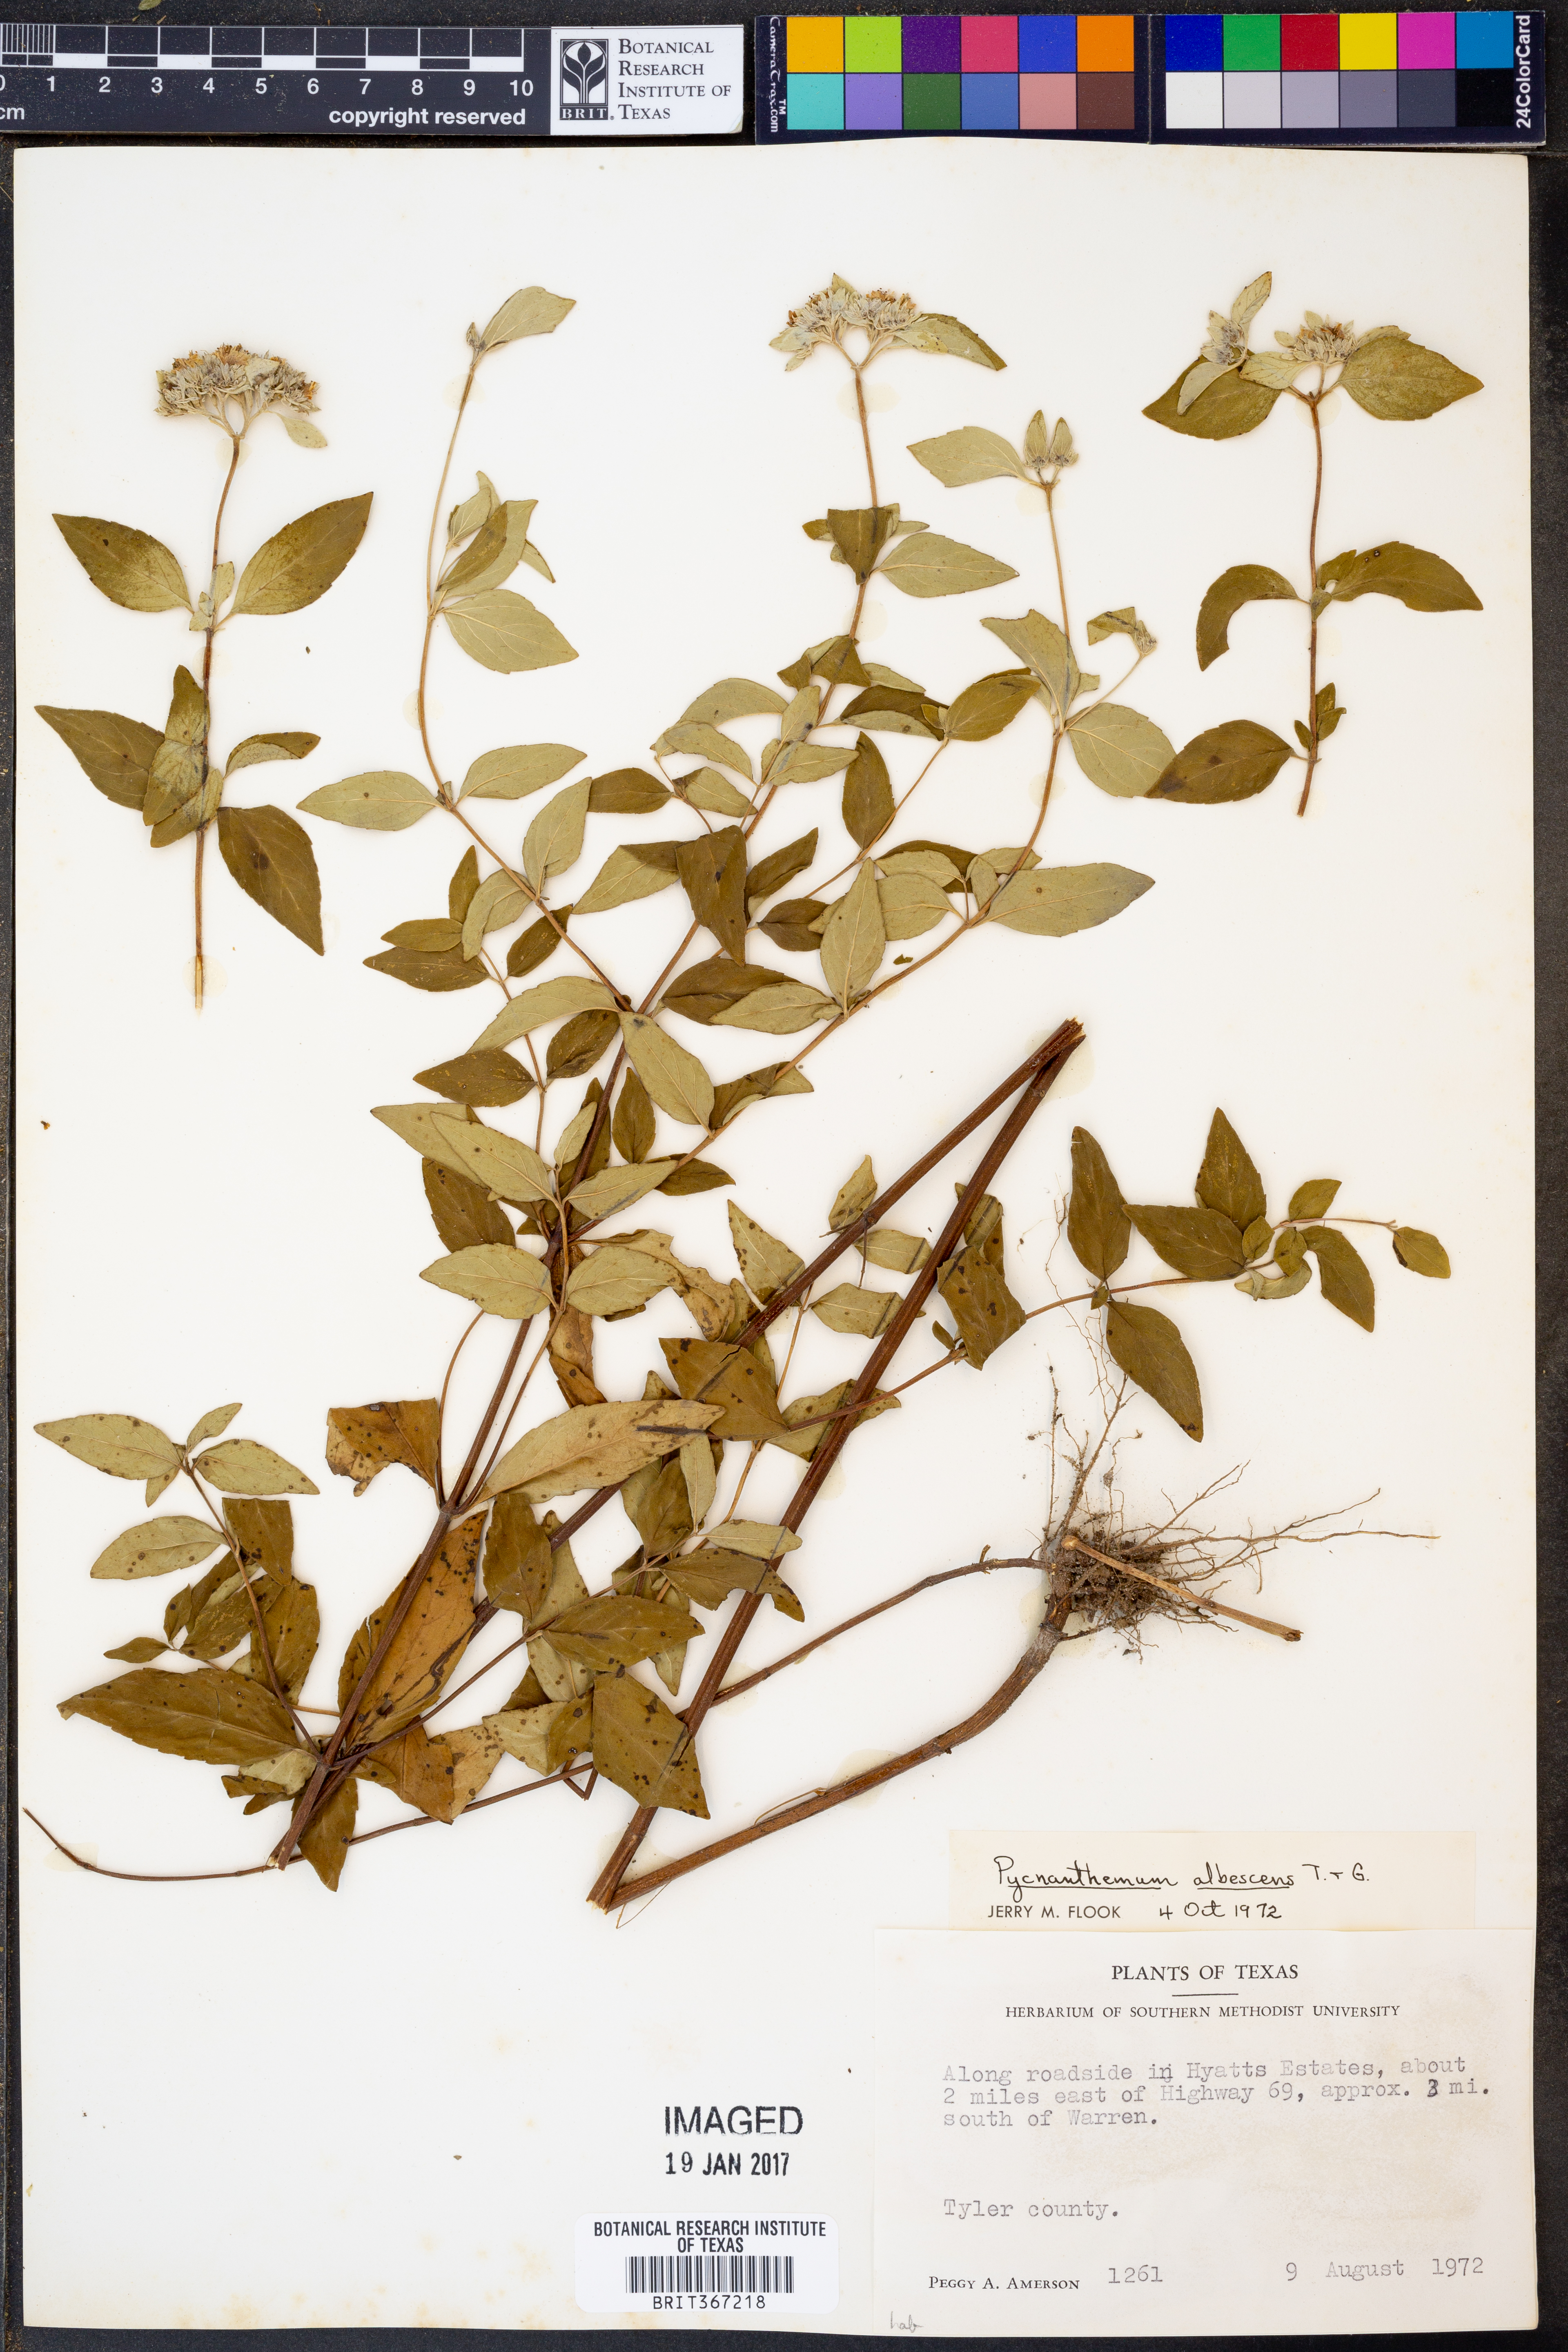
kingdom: Plantae
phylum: Tracheophyta
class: Magnoliopsida
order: Lamiales
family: Lamiaceae
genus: Pycnanthemum
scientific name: Pycnanthemum albescens
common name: White-leaf mountain-mint
